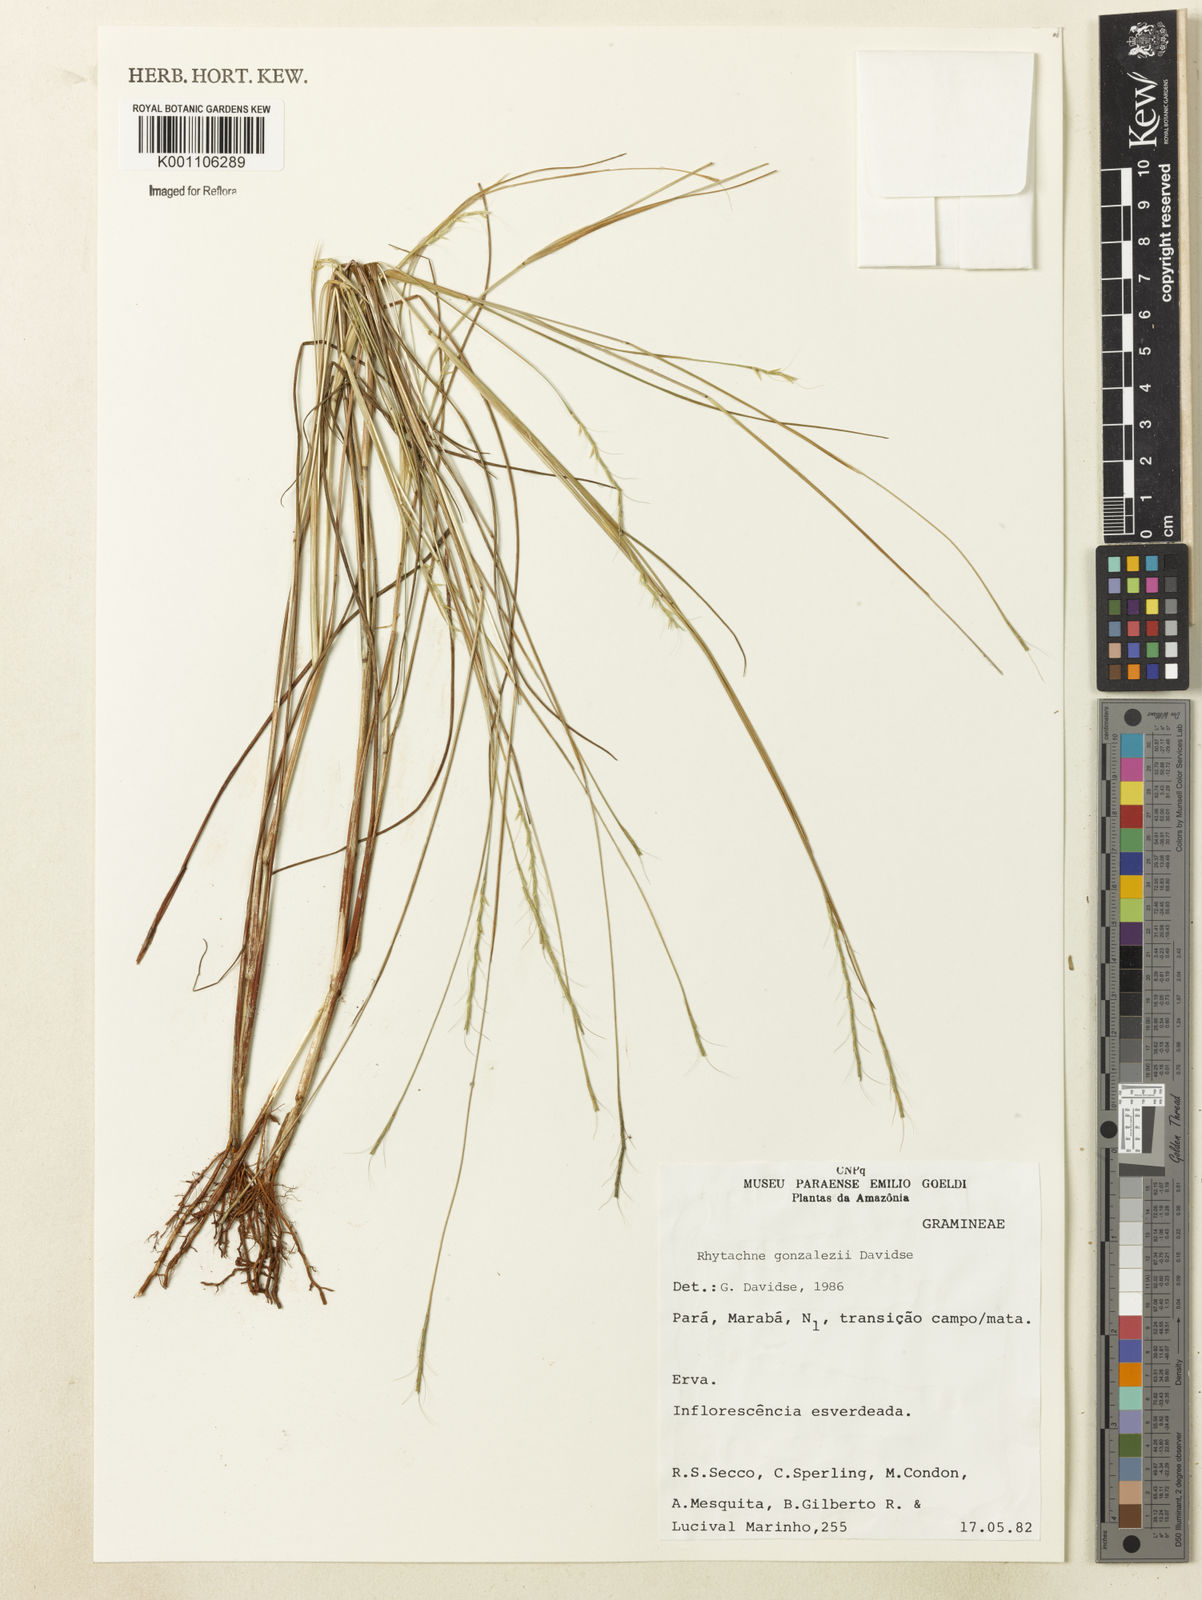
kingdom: Plantae
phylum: Tracheophyta
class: Liliopsida
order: Poales
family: Poaceae
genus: Rhytachne
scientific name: Rhytachne gonzalezii
